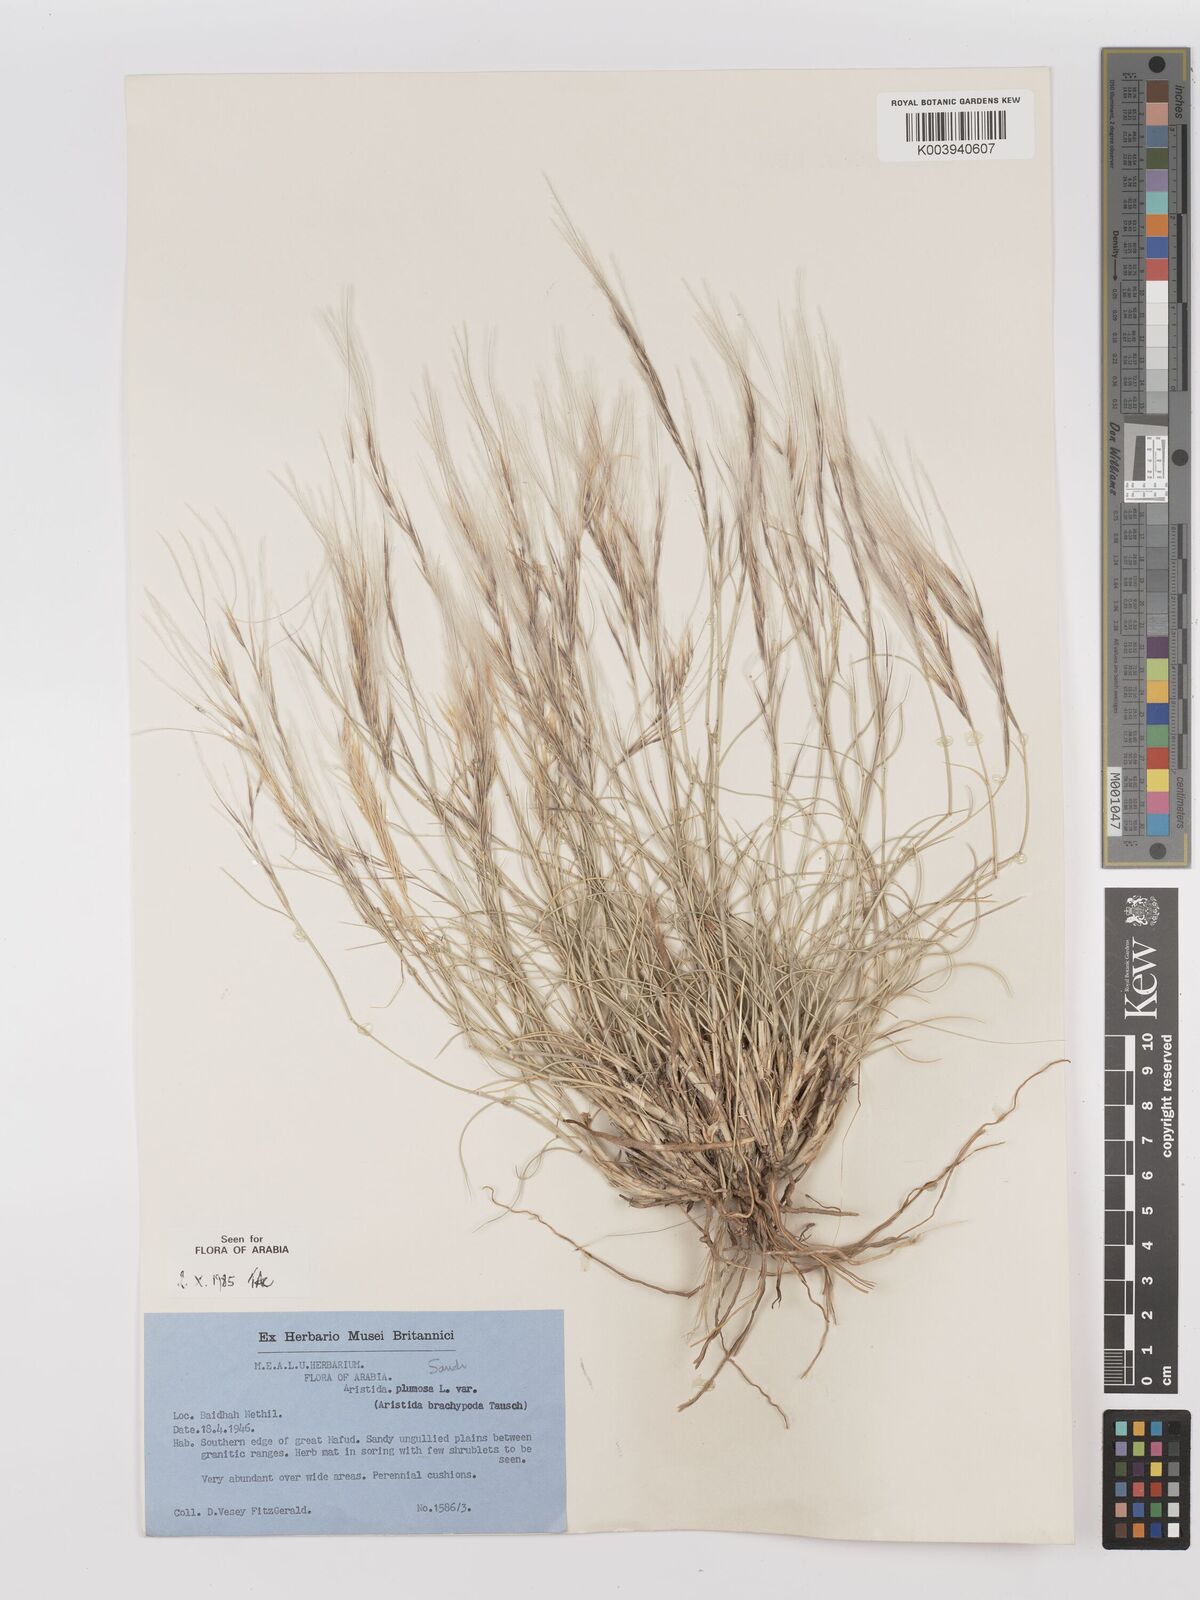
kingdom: Plantae
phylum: Tracheophyta
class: Liliopsida
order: Poales
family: Poaceae
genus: Stipagrostis
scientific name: Stipagrostis plumosa
